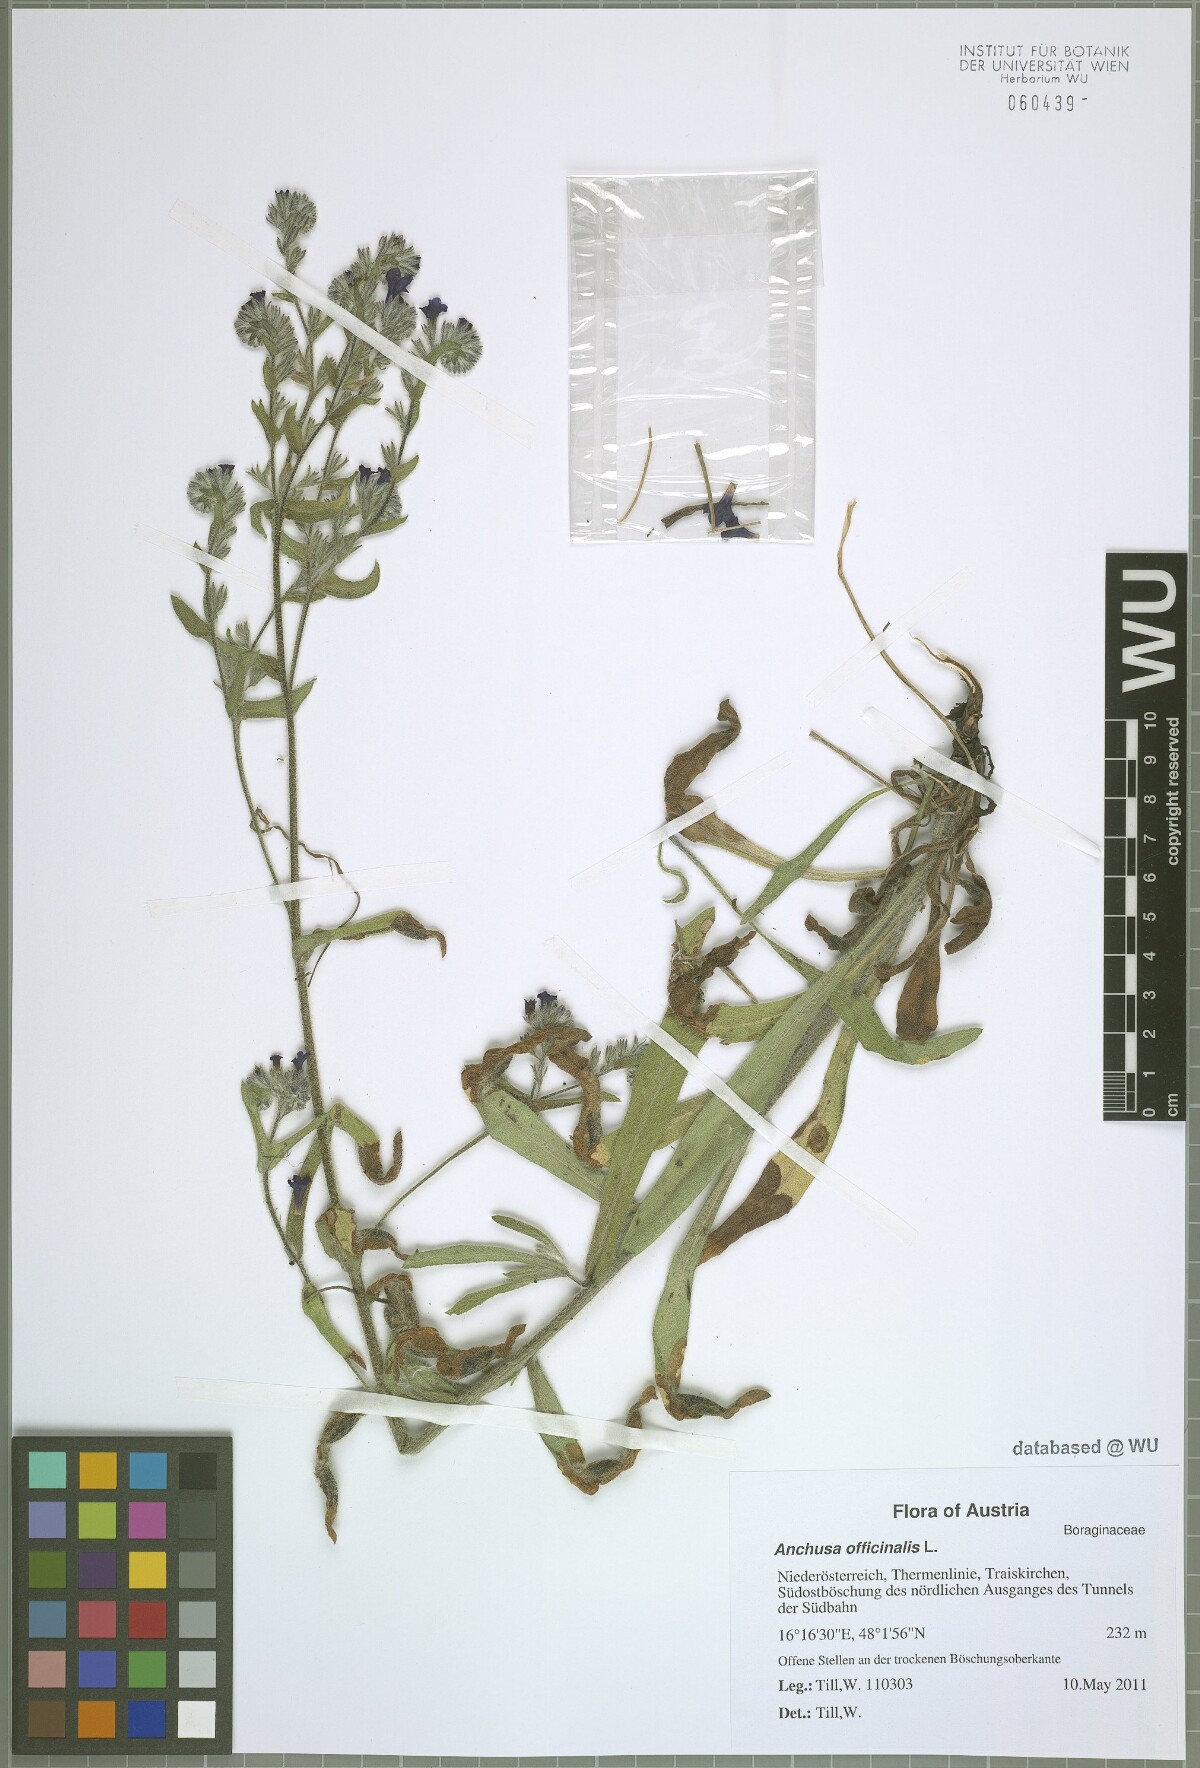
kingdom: Plantae
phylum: Tracheophyta
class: Magnoliopsida
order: Boraginales
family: Boraginaceae
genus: Anchusa
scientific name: Anchusa officinalis
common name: Alkanet
